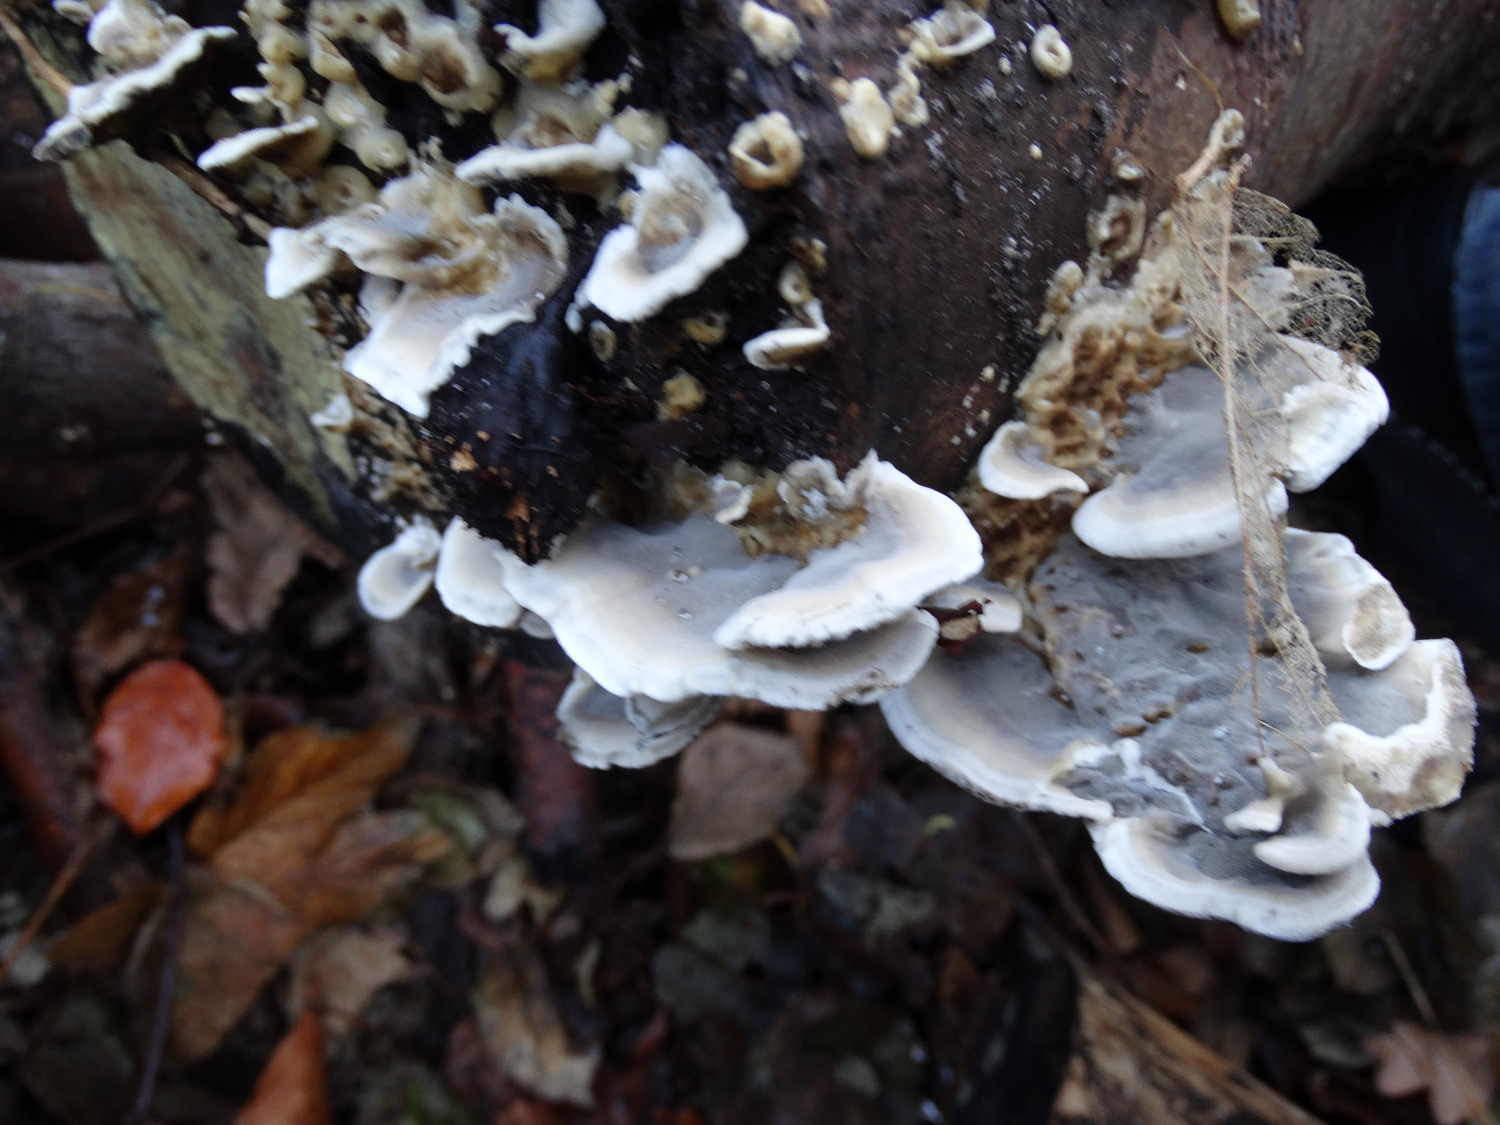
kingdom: Fungi
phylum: Basidiomycota
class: Agaricomycetes
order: Polyporales
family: Phanerochaetaceae
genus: Bjerkandera
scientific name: Bjerkandera adusta
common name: sveden sodporesvamp
